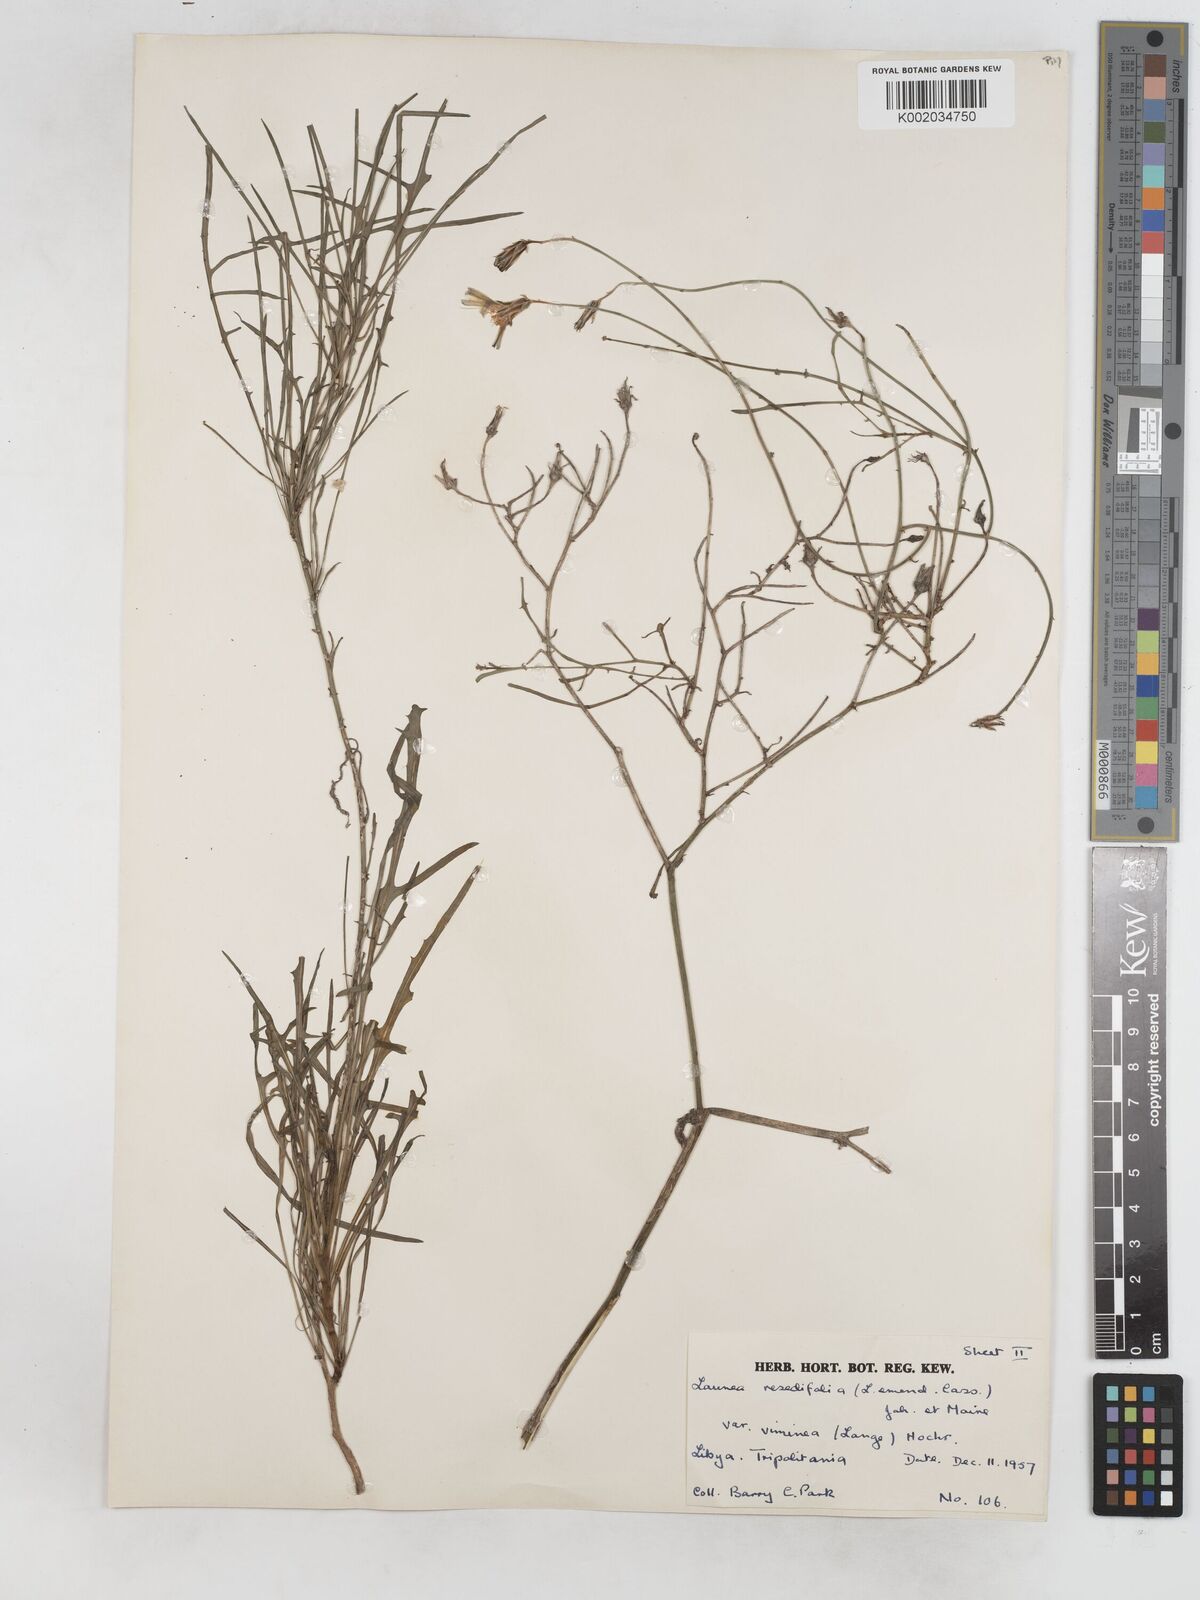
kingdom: Plantae
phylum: Tracheophyta
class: Magnoliopsida
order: Asterales
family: Asteraceae
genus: Launaea
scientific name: Launaea fragilis
